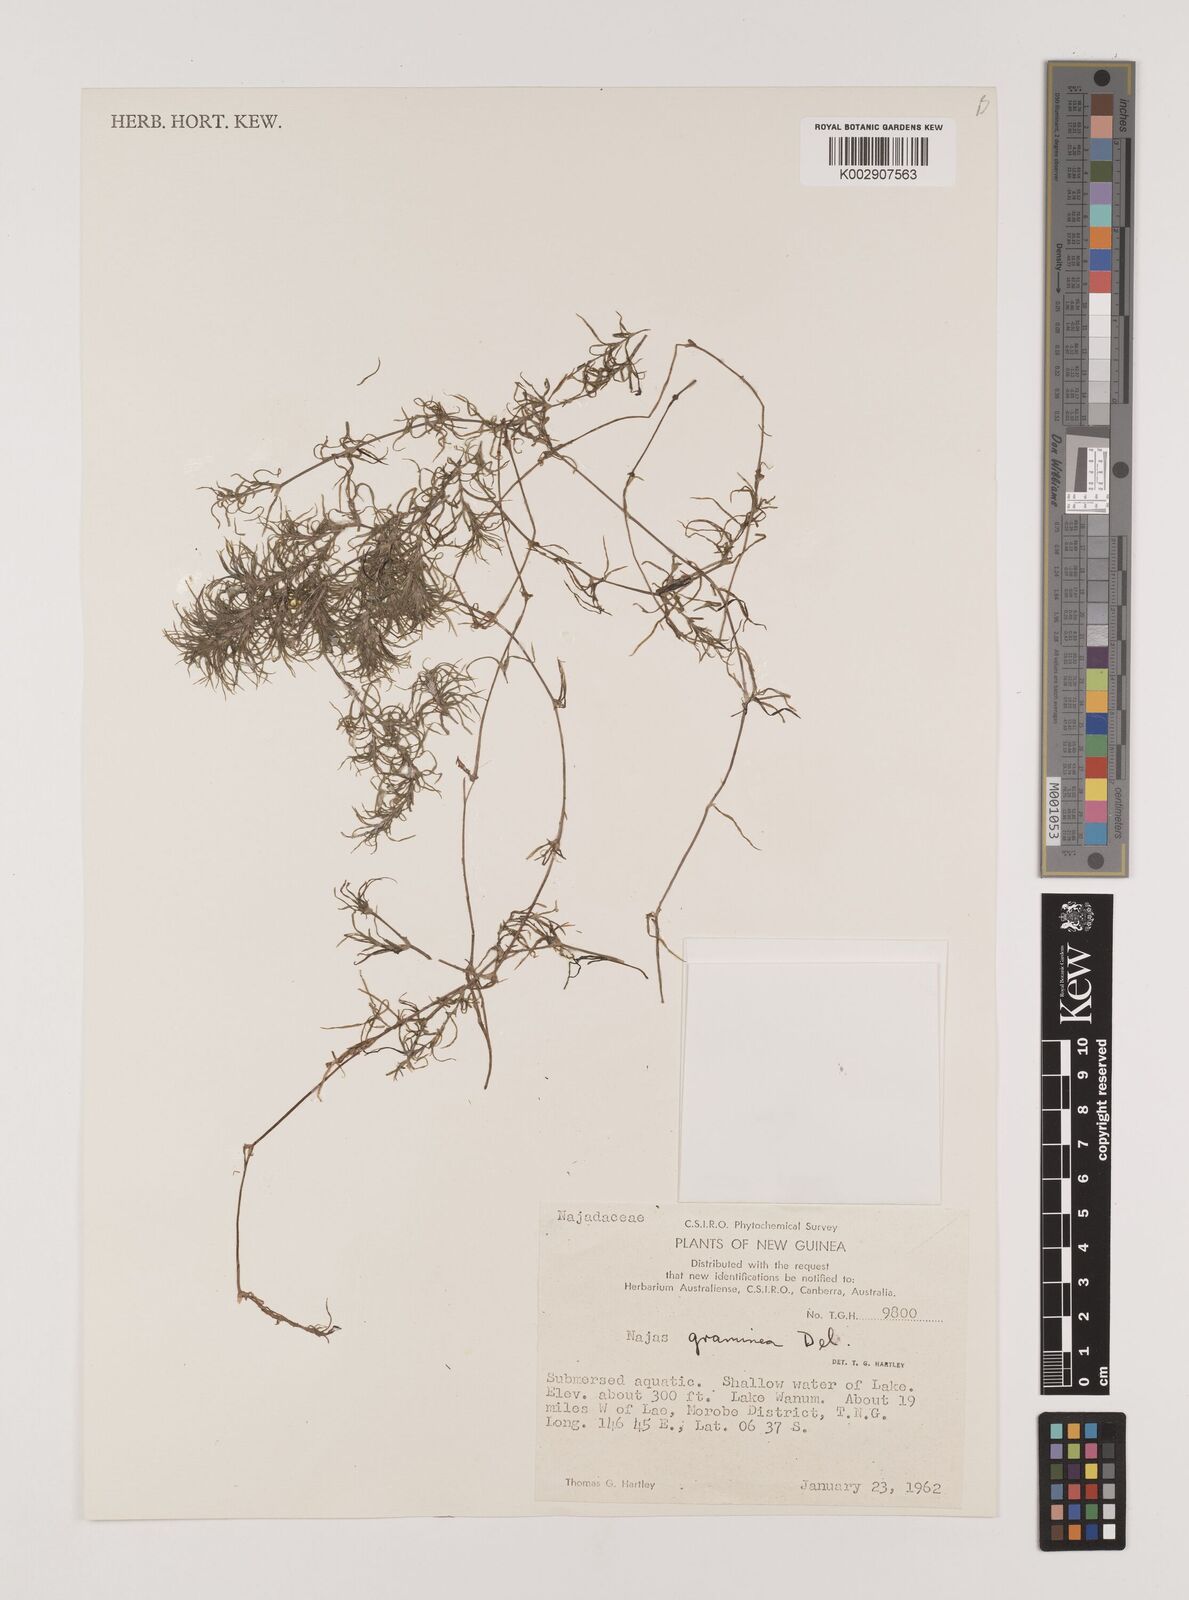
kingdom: Plantae
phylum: Tracheophyta
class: Liliopsida
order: Alismatales
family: Hydrocharitaceae
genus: Najas
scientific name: Najas graminea
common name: Ricefield waternymph
